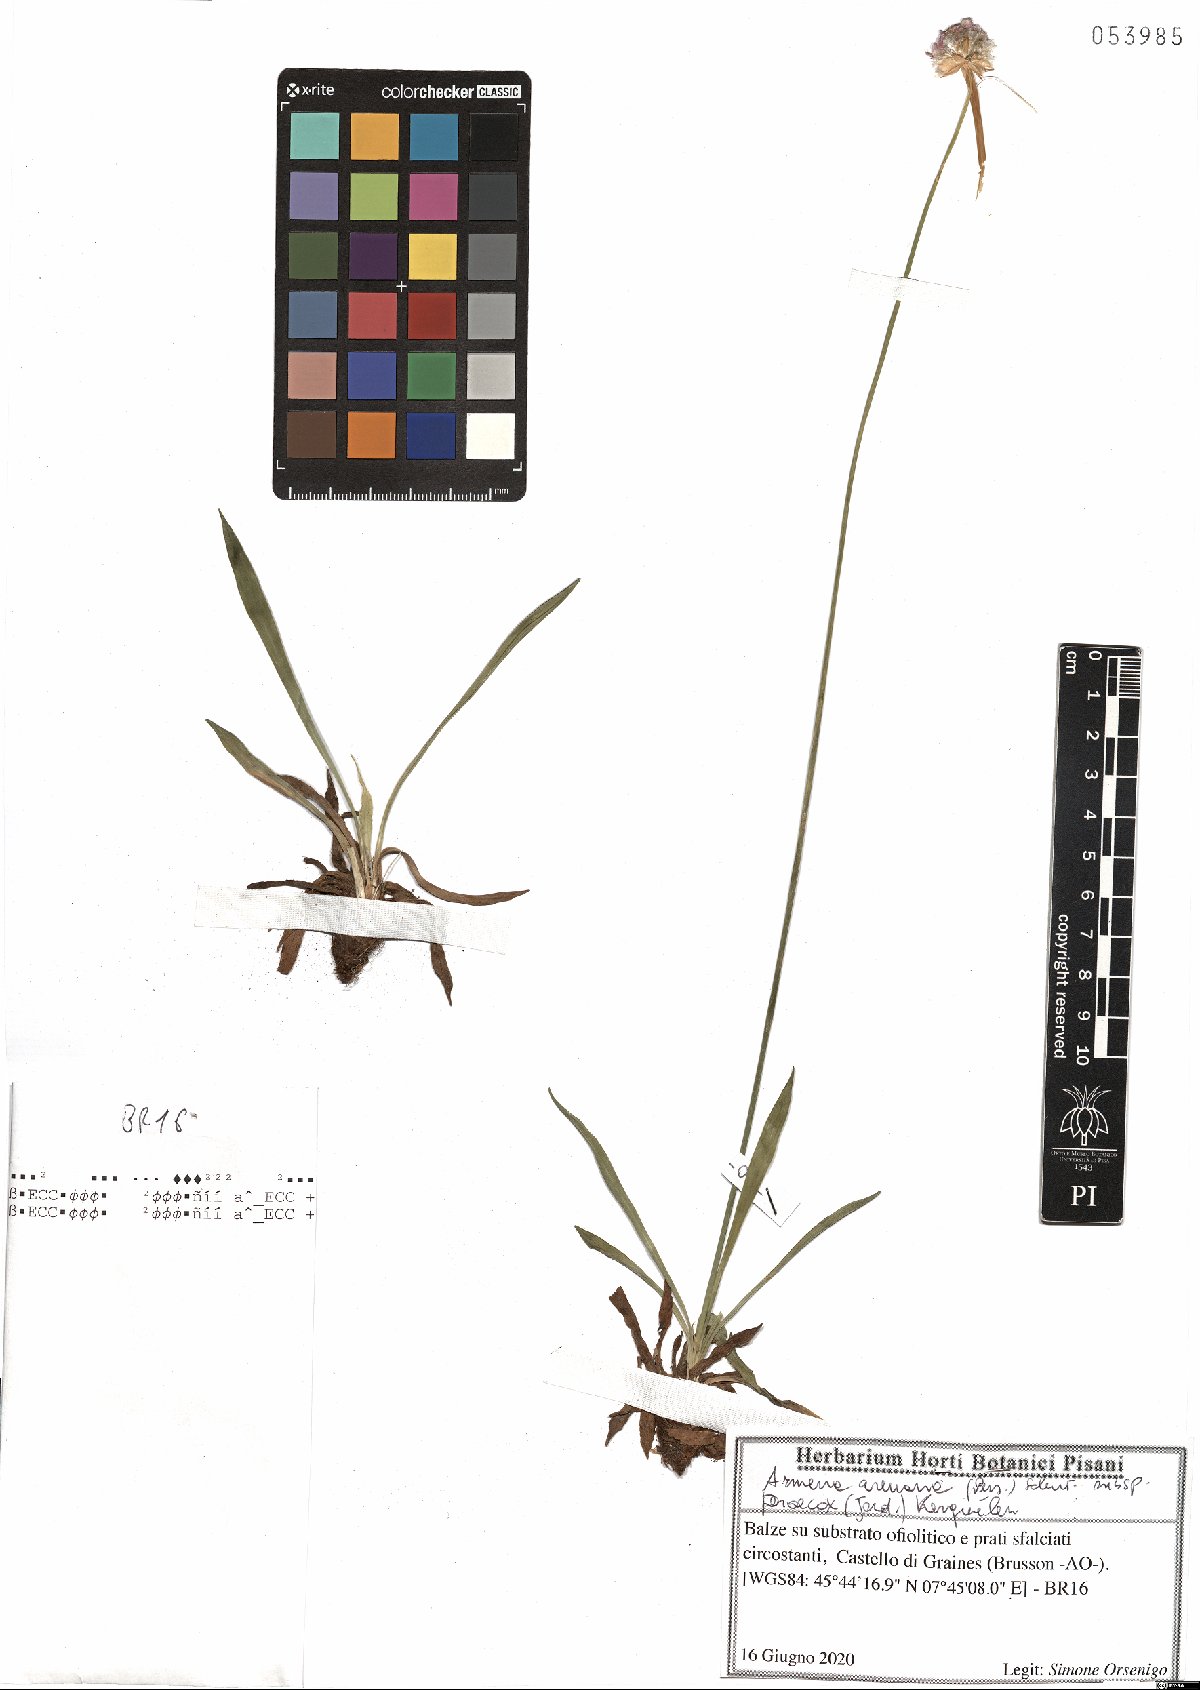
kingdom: Plantae
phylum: Tracheophyta
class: Magnoliopsida
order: Caryophyllales
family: Plumbaginaceae
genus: Armeria
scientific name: Armeria arenaria
